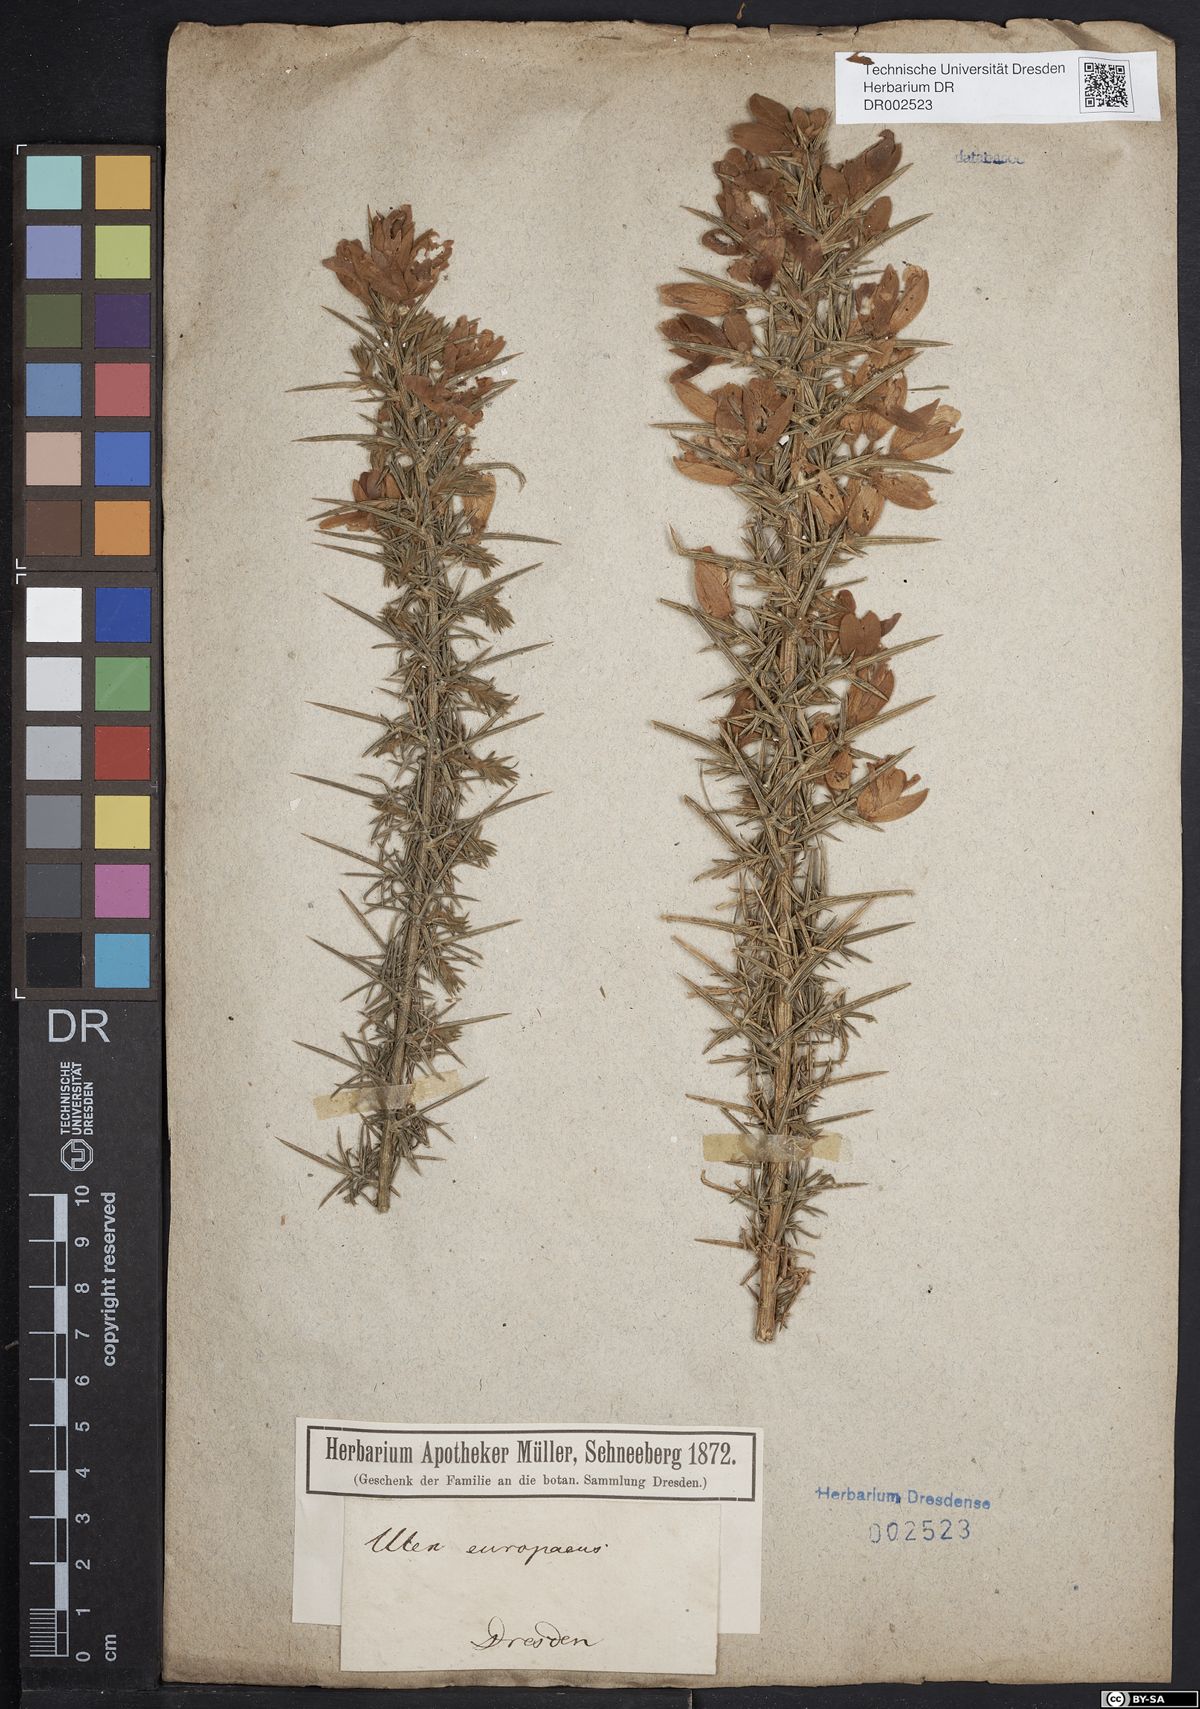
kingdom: Plantae
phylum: Tracheophyta
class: Magnoliopsida
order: Fabales
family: Fabaceae
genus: Ulex
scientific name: Ulex europaeus
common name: Common gorse
